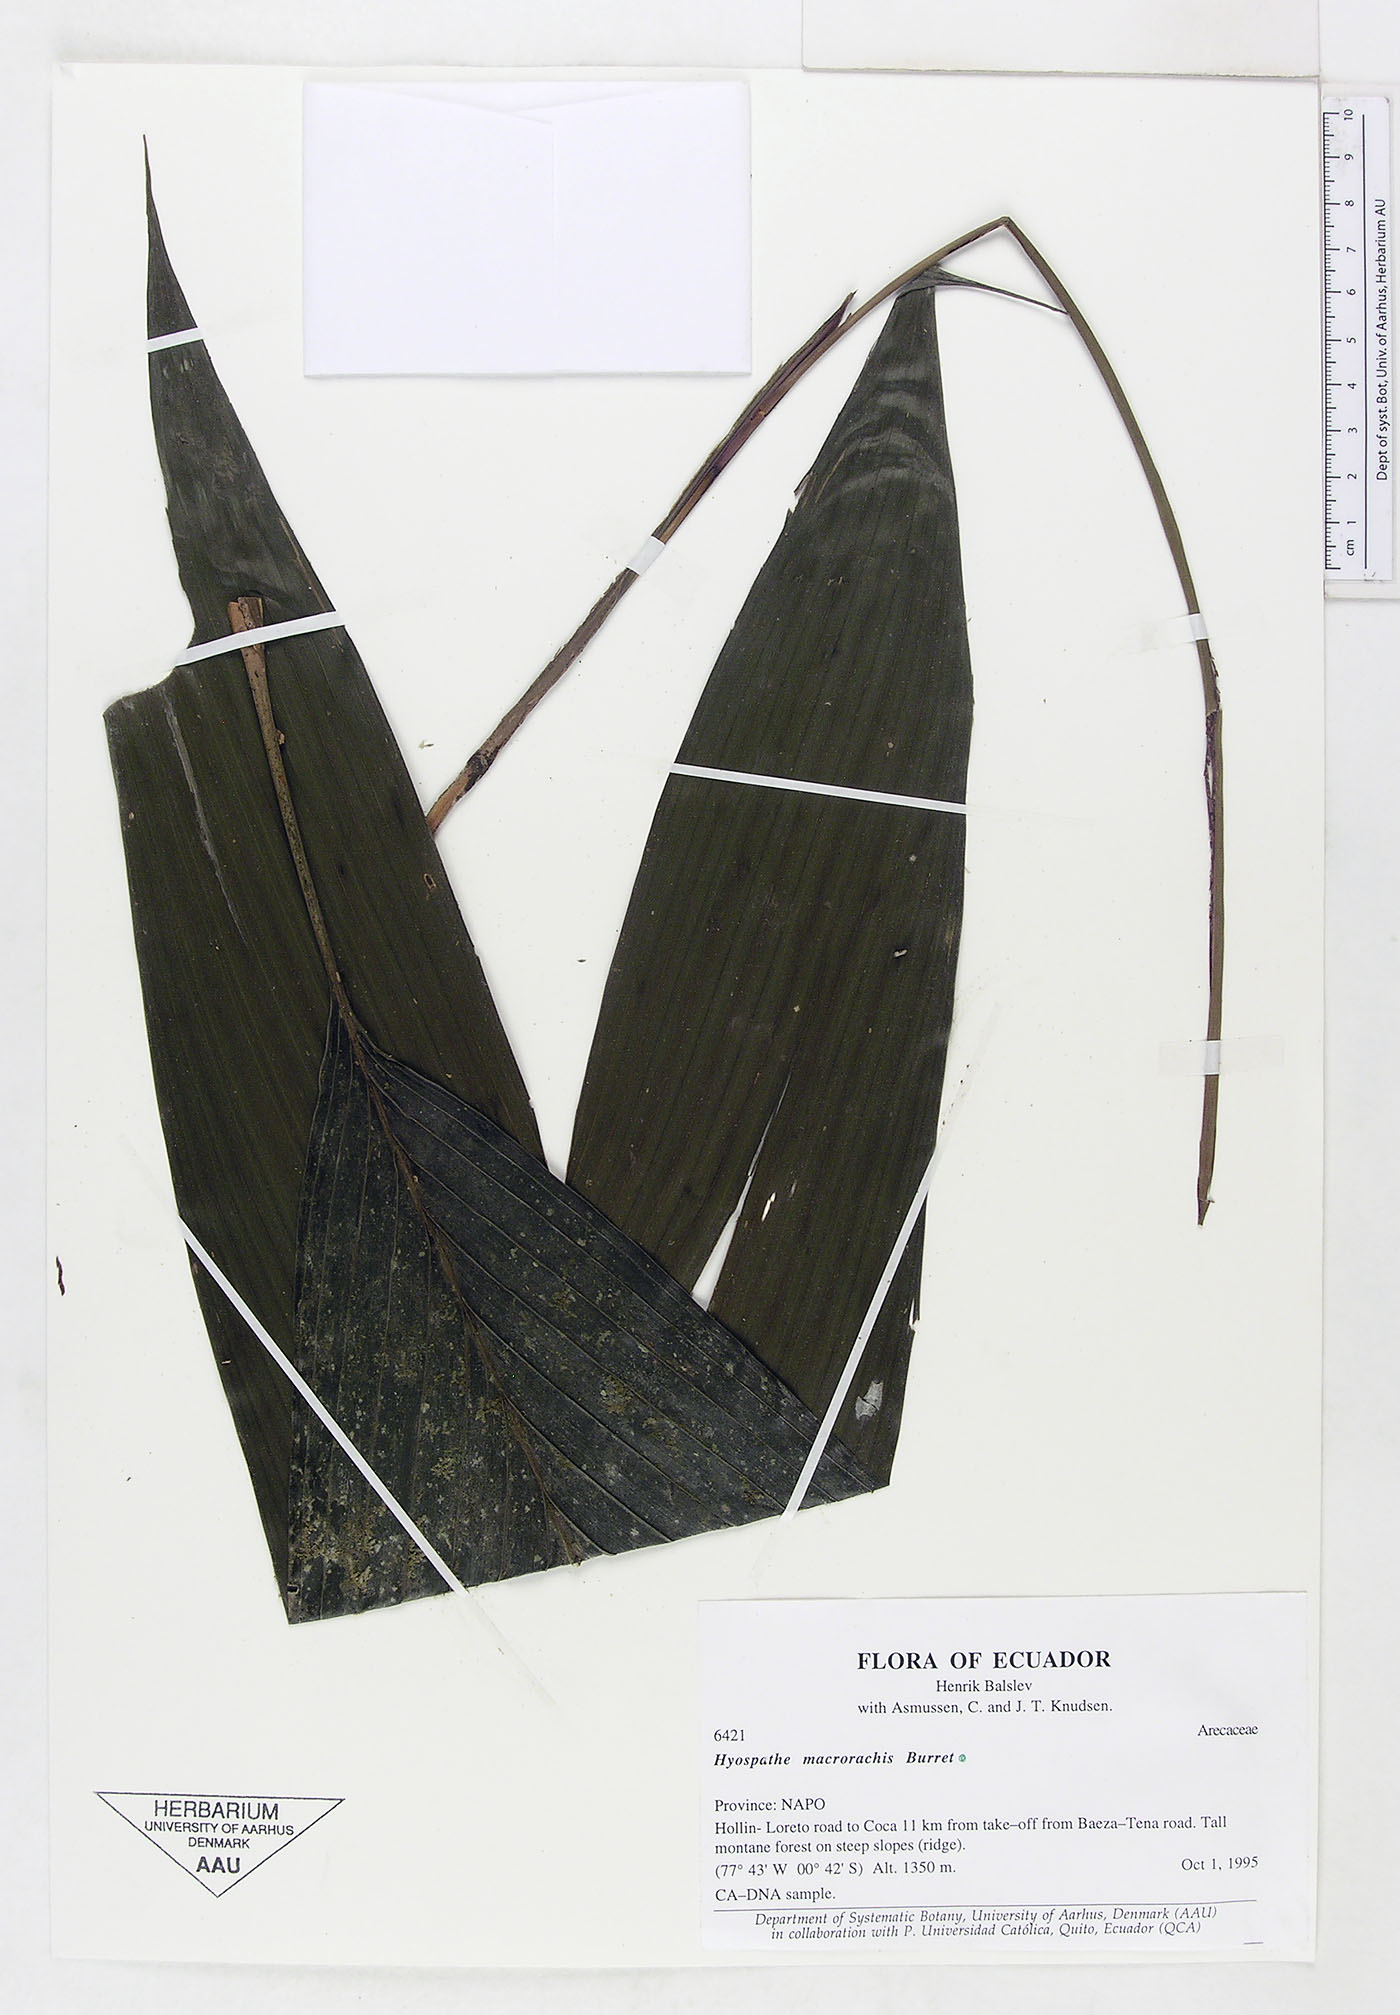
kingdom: Plantae
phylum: Tracheophyta
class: Liliopsida
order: Arecales
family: Arecaceae
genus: Hyospathe
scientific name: Hyospathe macrorhachis
